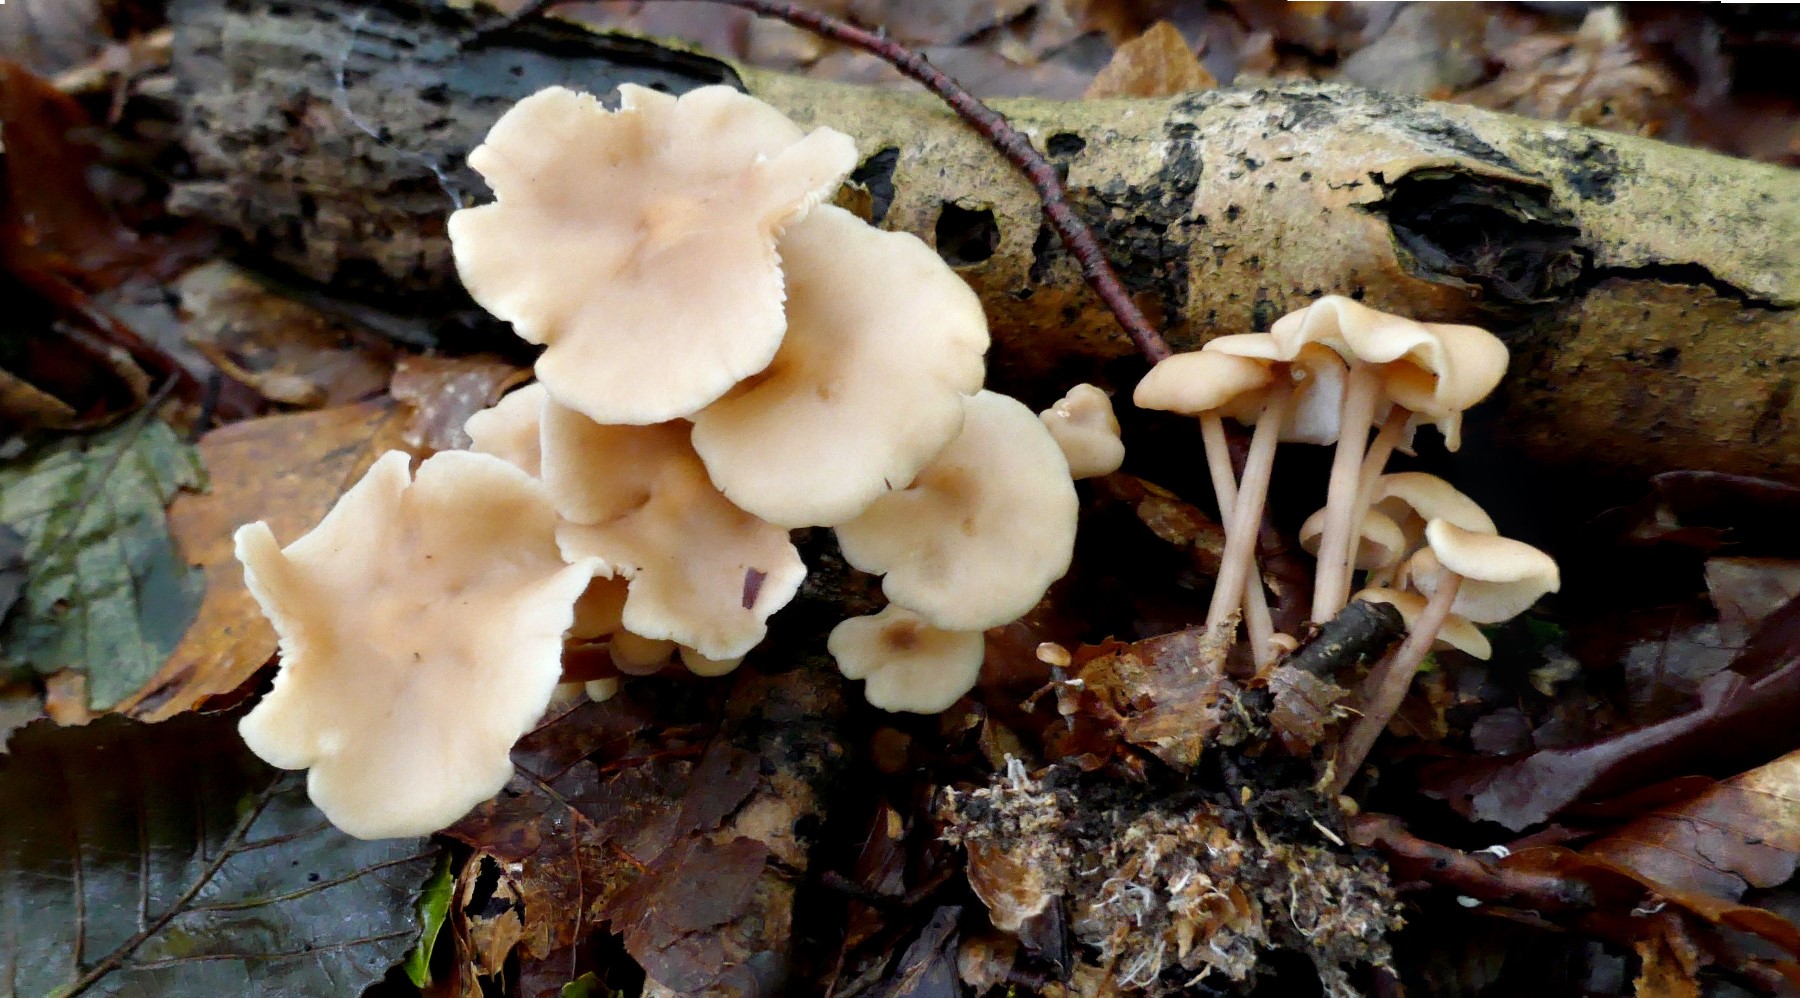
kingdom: Fungi
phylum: Basidiomycota
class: Agaricomycetes
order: Agaricales
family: Omphalotaceae
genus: Collybiopsis
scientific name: Collybiopsis confluens
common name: knippe-fladhat
